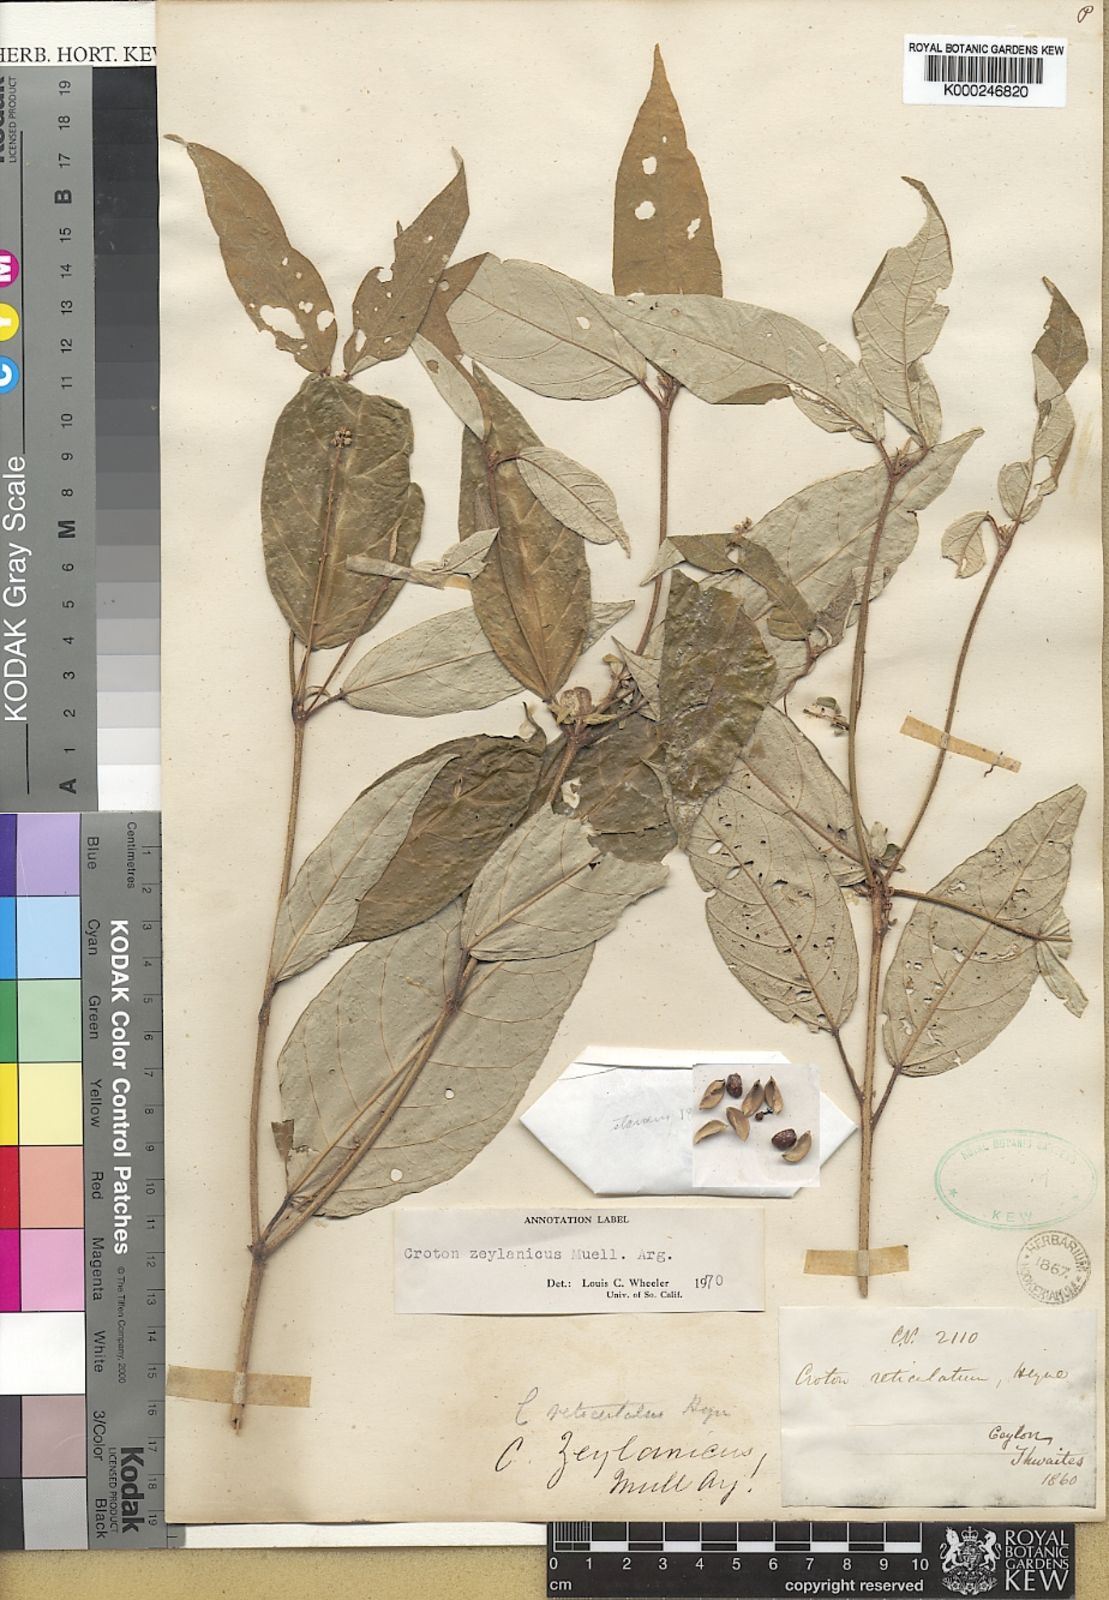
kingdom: Plantae
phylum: Tracheophyta
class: Magnoliopsida
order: Malpighiales
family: Euphorbiaceae
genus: Croton
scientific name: Croton
